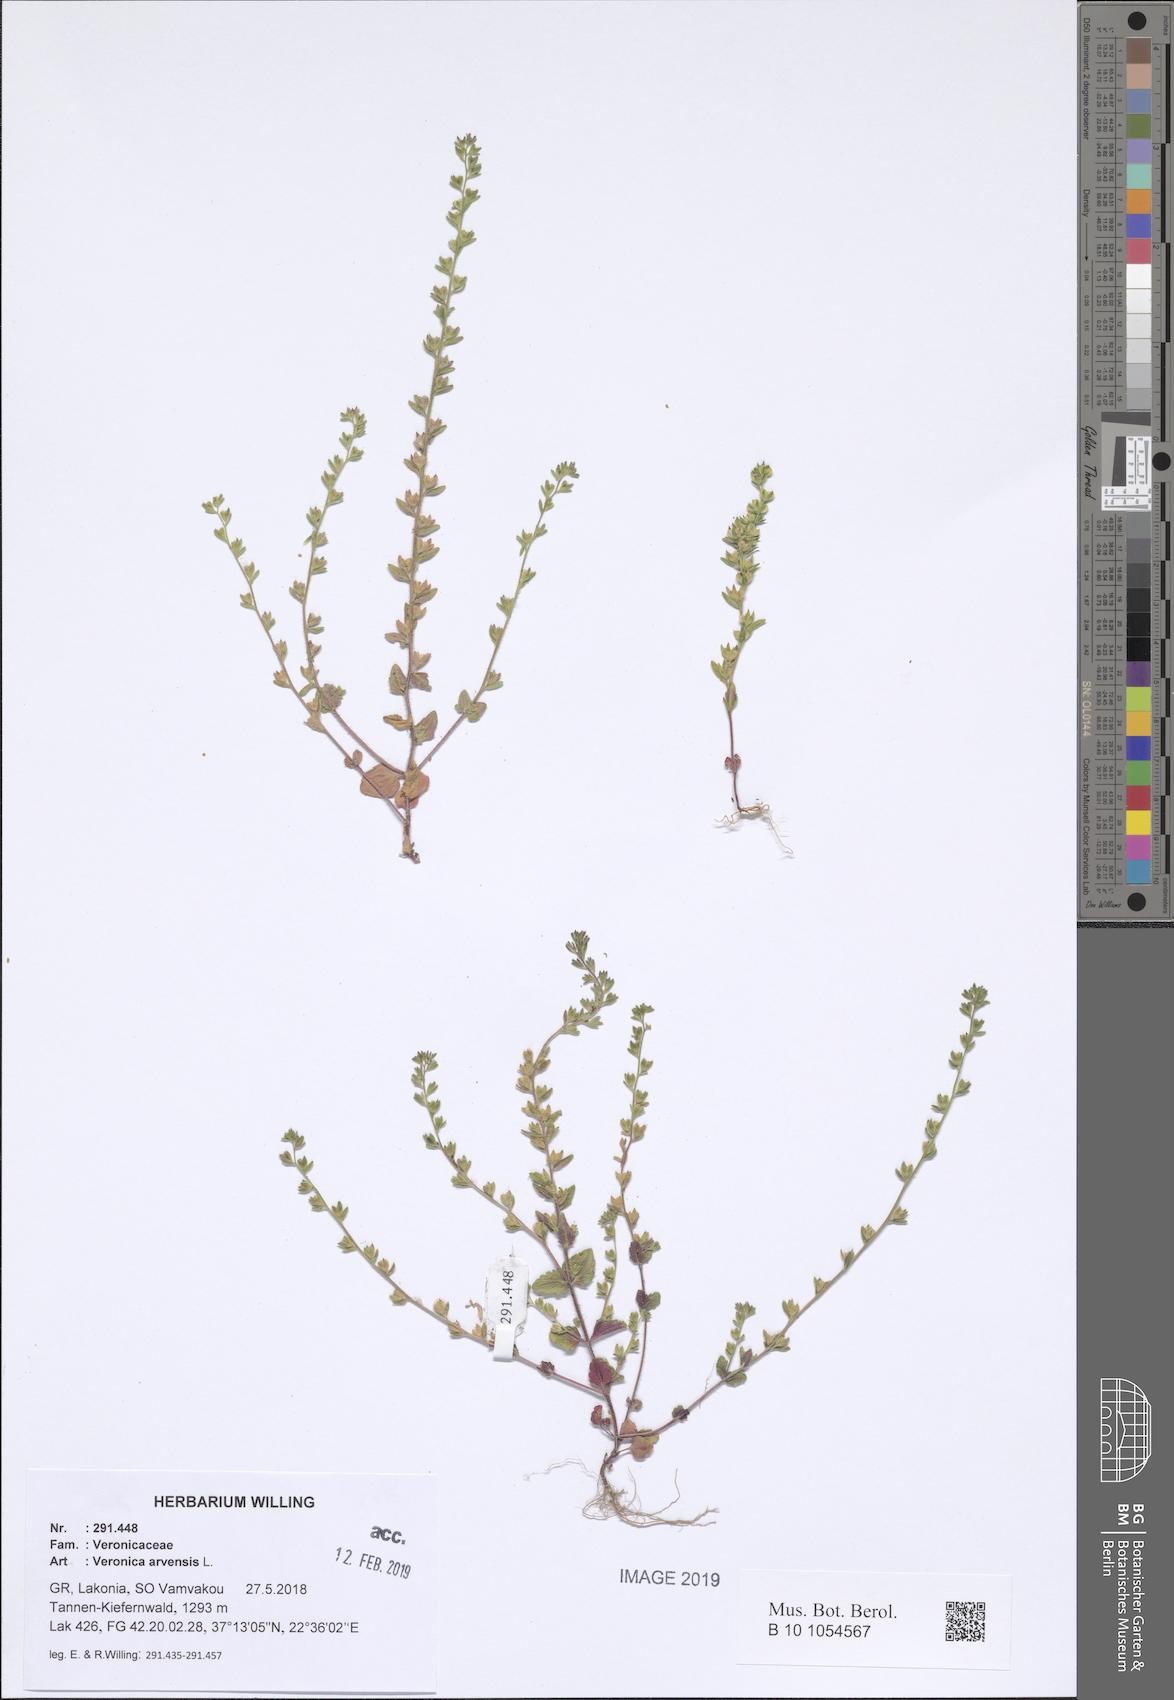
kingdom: Plantae
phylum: Tracheophyta
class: Magnoliopsida
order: Lamiales
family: Plantaginaceae
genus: Veronica
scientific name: Veronica arvensis
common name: Corn speedwell
